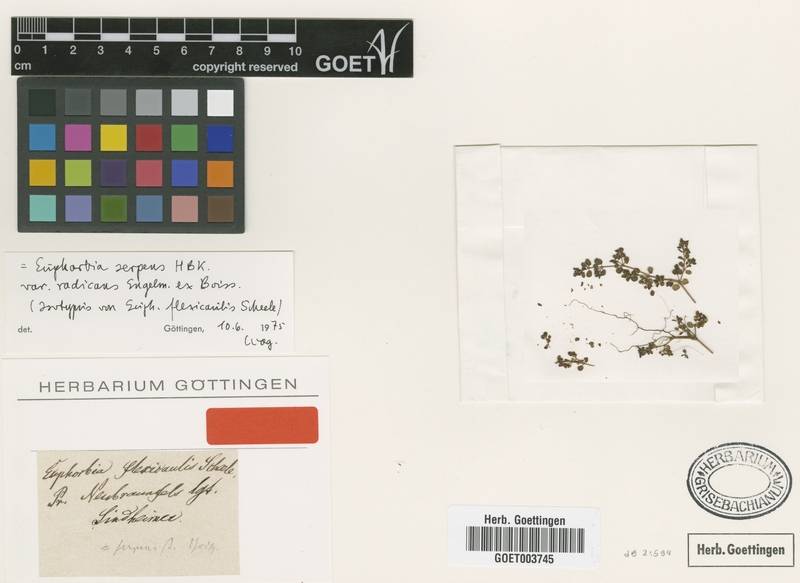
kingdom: Plantae
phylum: Tracheophyta
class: Magnoliopsida
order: Malpighiales
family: Euphorbiaceae
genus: Euphorbia
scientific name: Euphorbia serpens
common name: Matted sandmat
